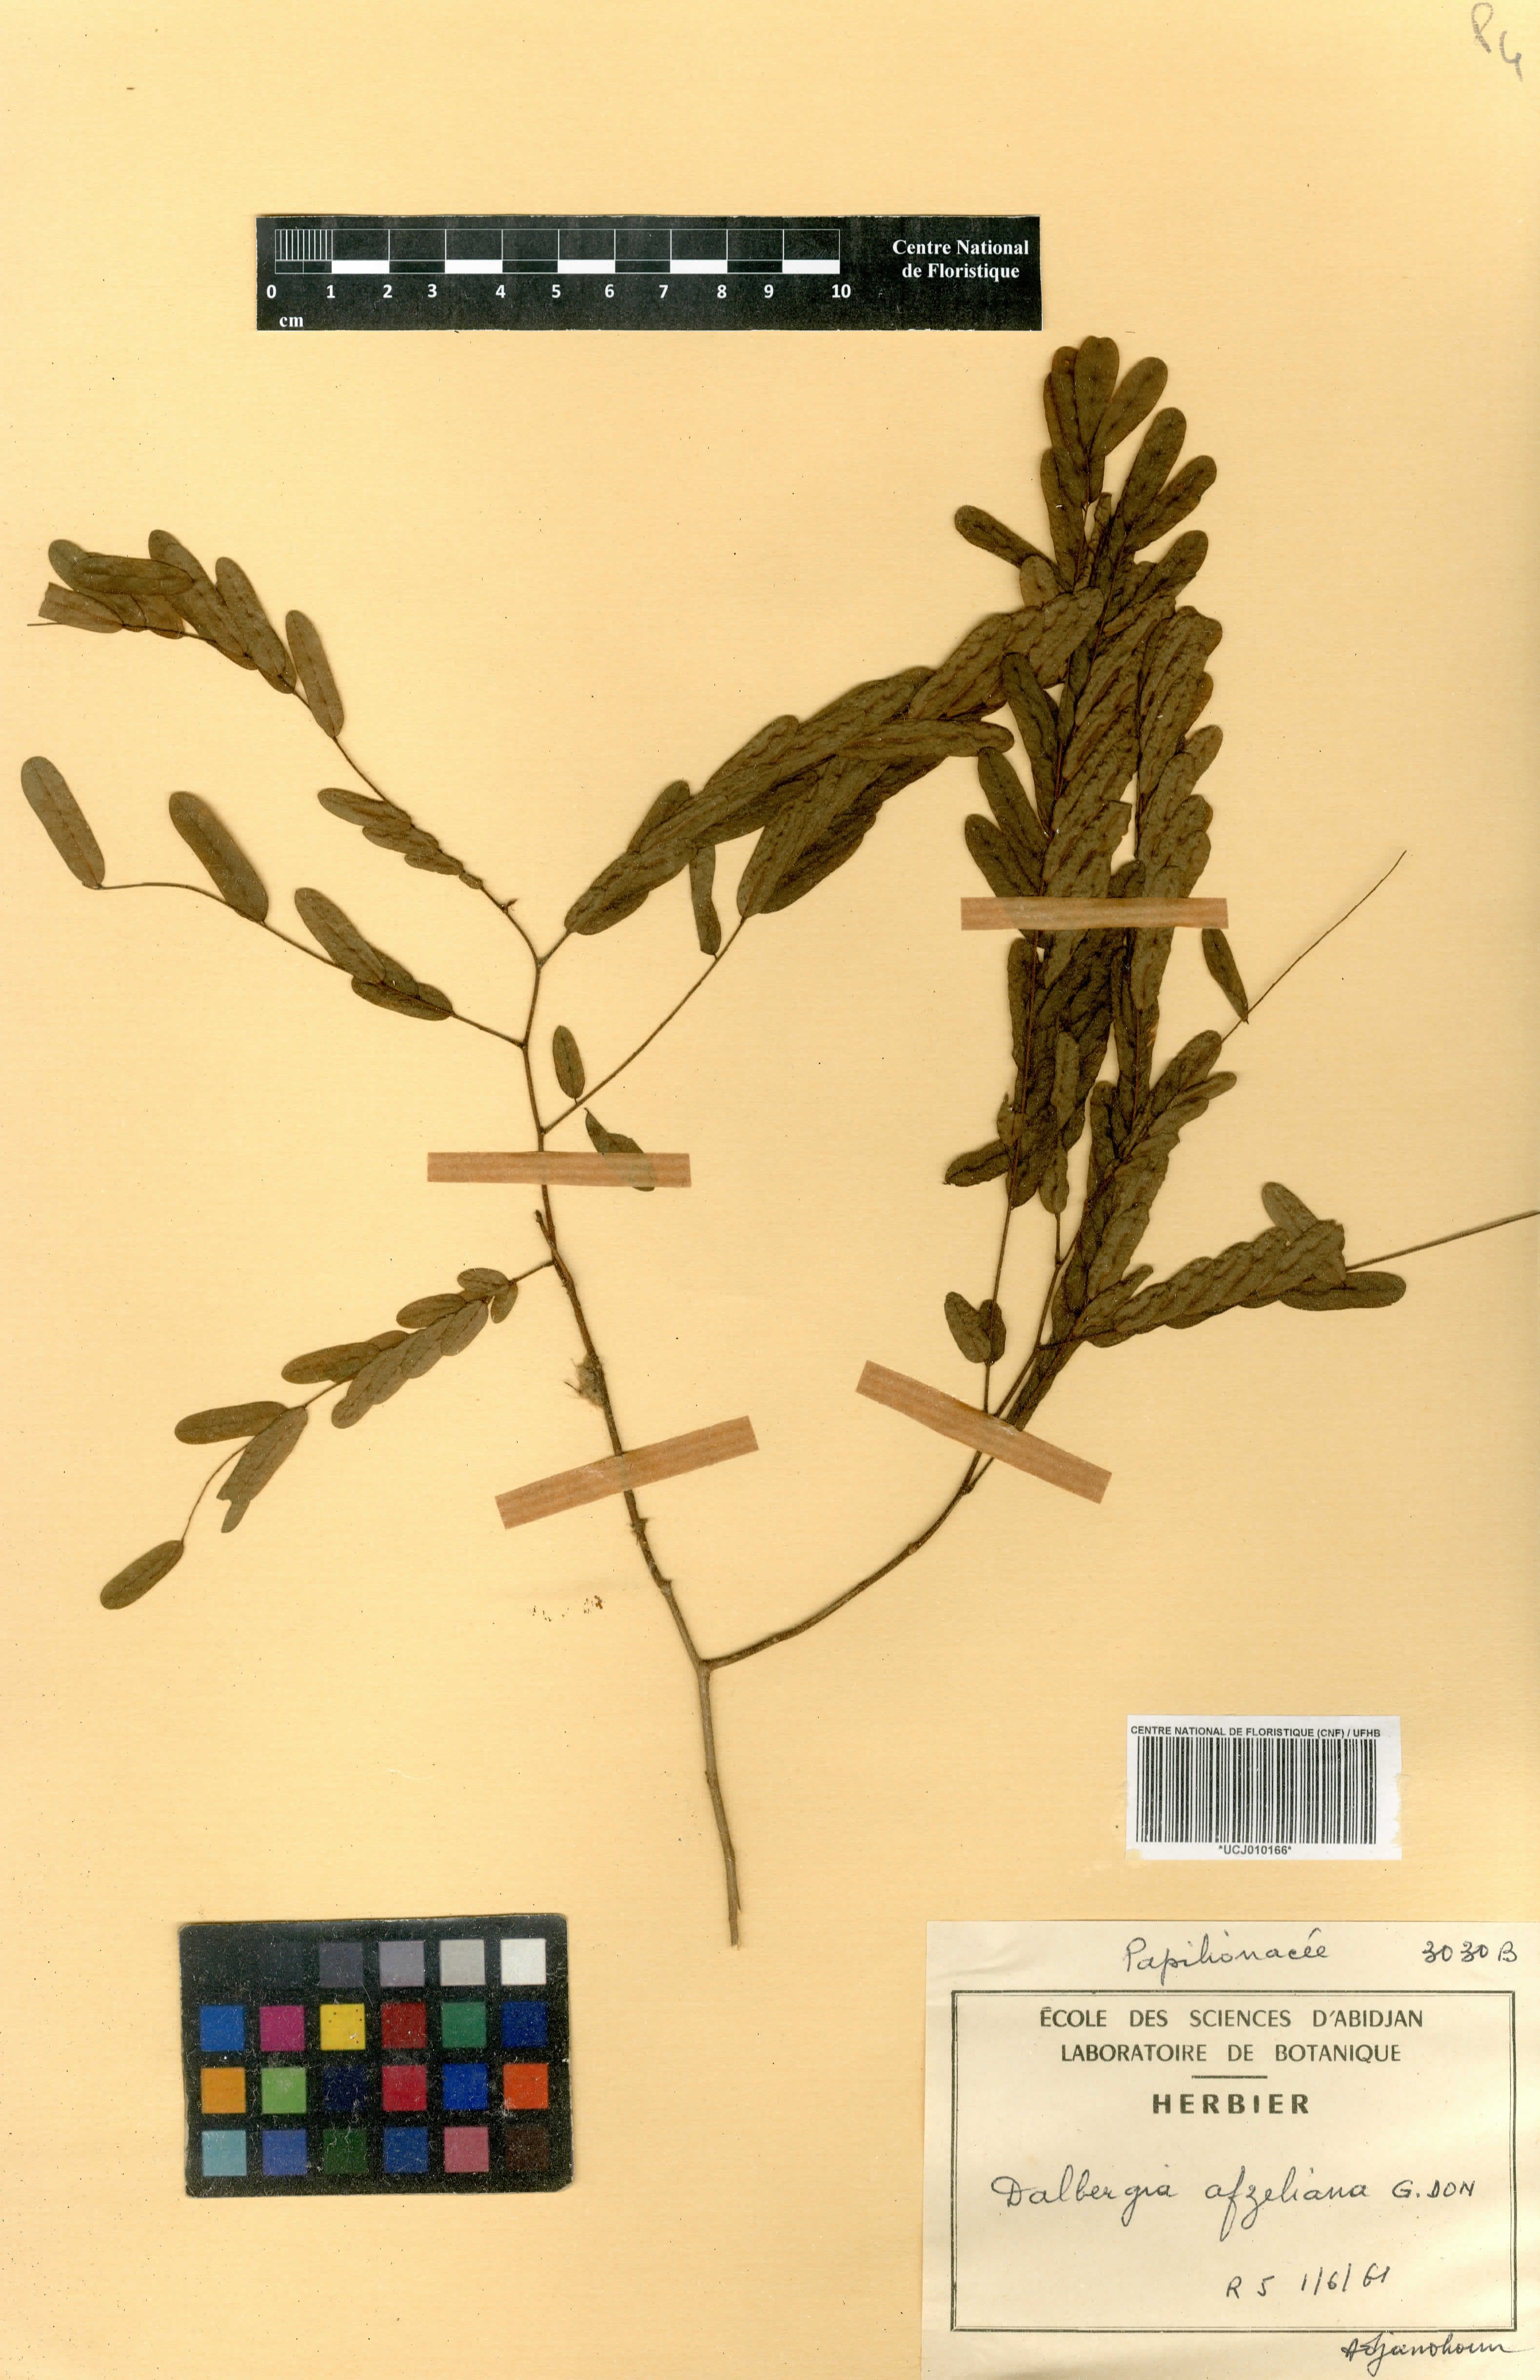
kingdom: Plantae
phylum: Tracheophyta
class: Magnoliopsida
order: Fabales
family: Fabaceae
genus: Dalbergia
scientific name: Dalbergia afzeliana
